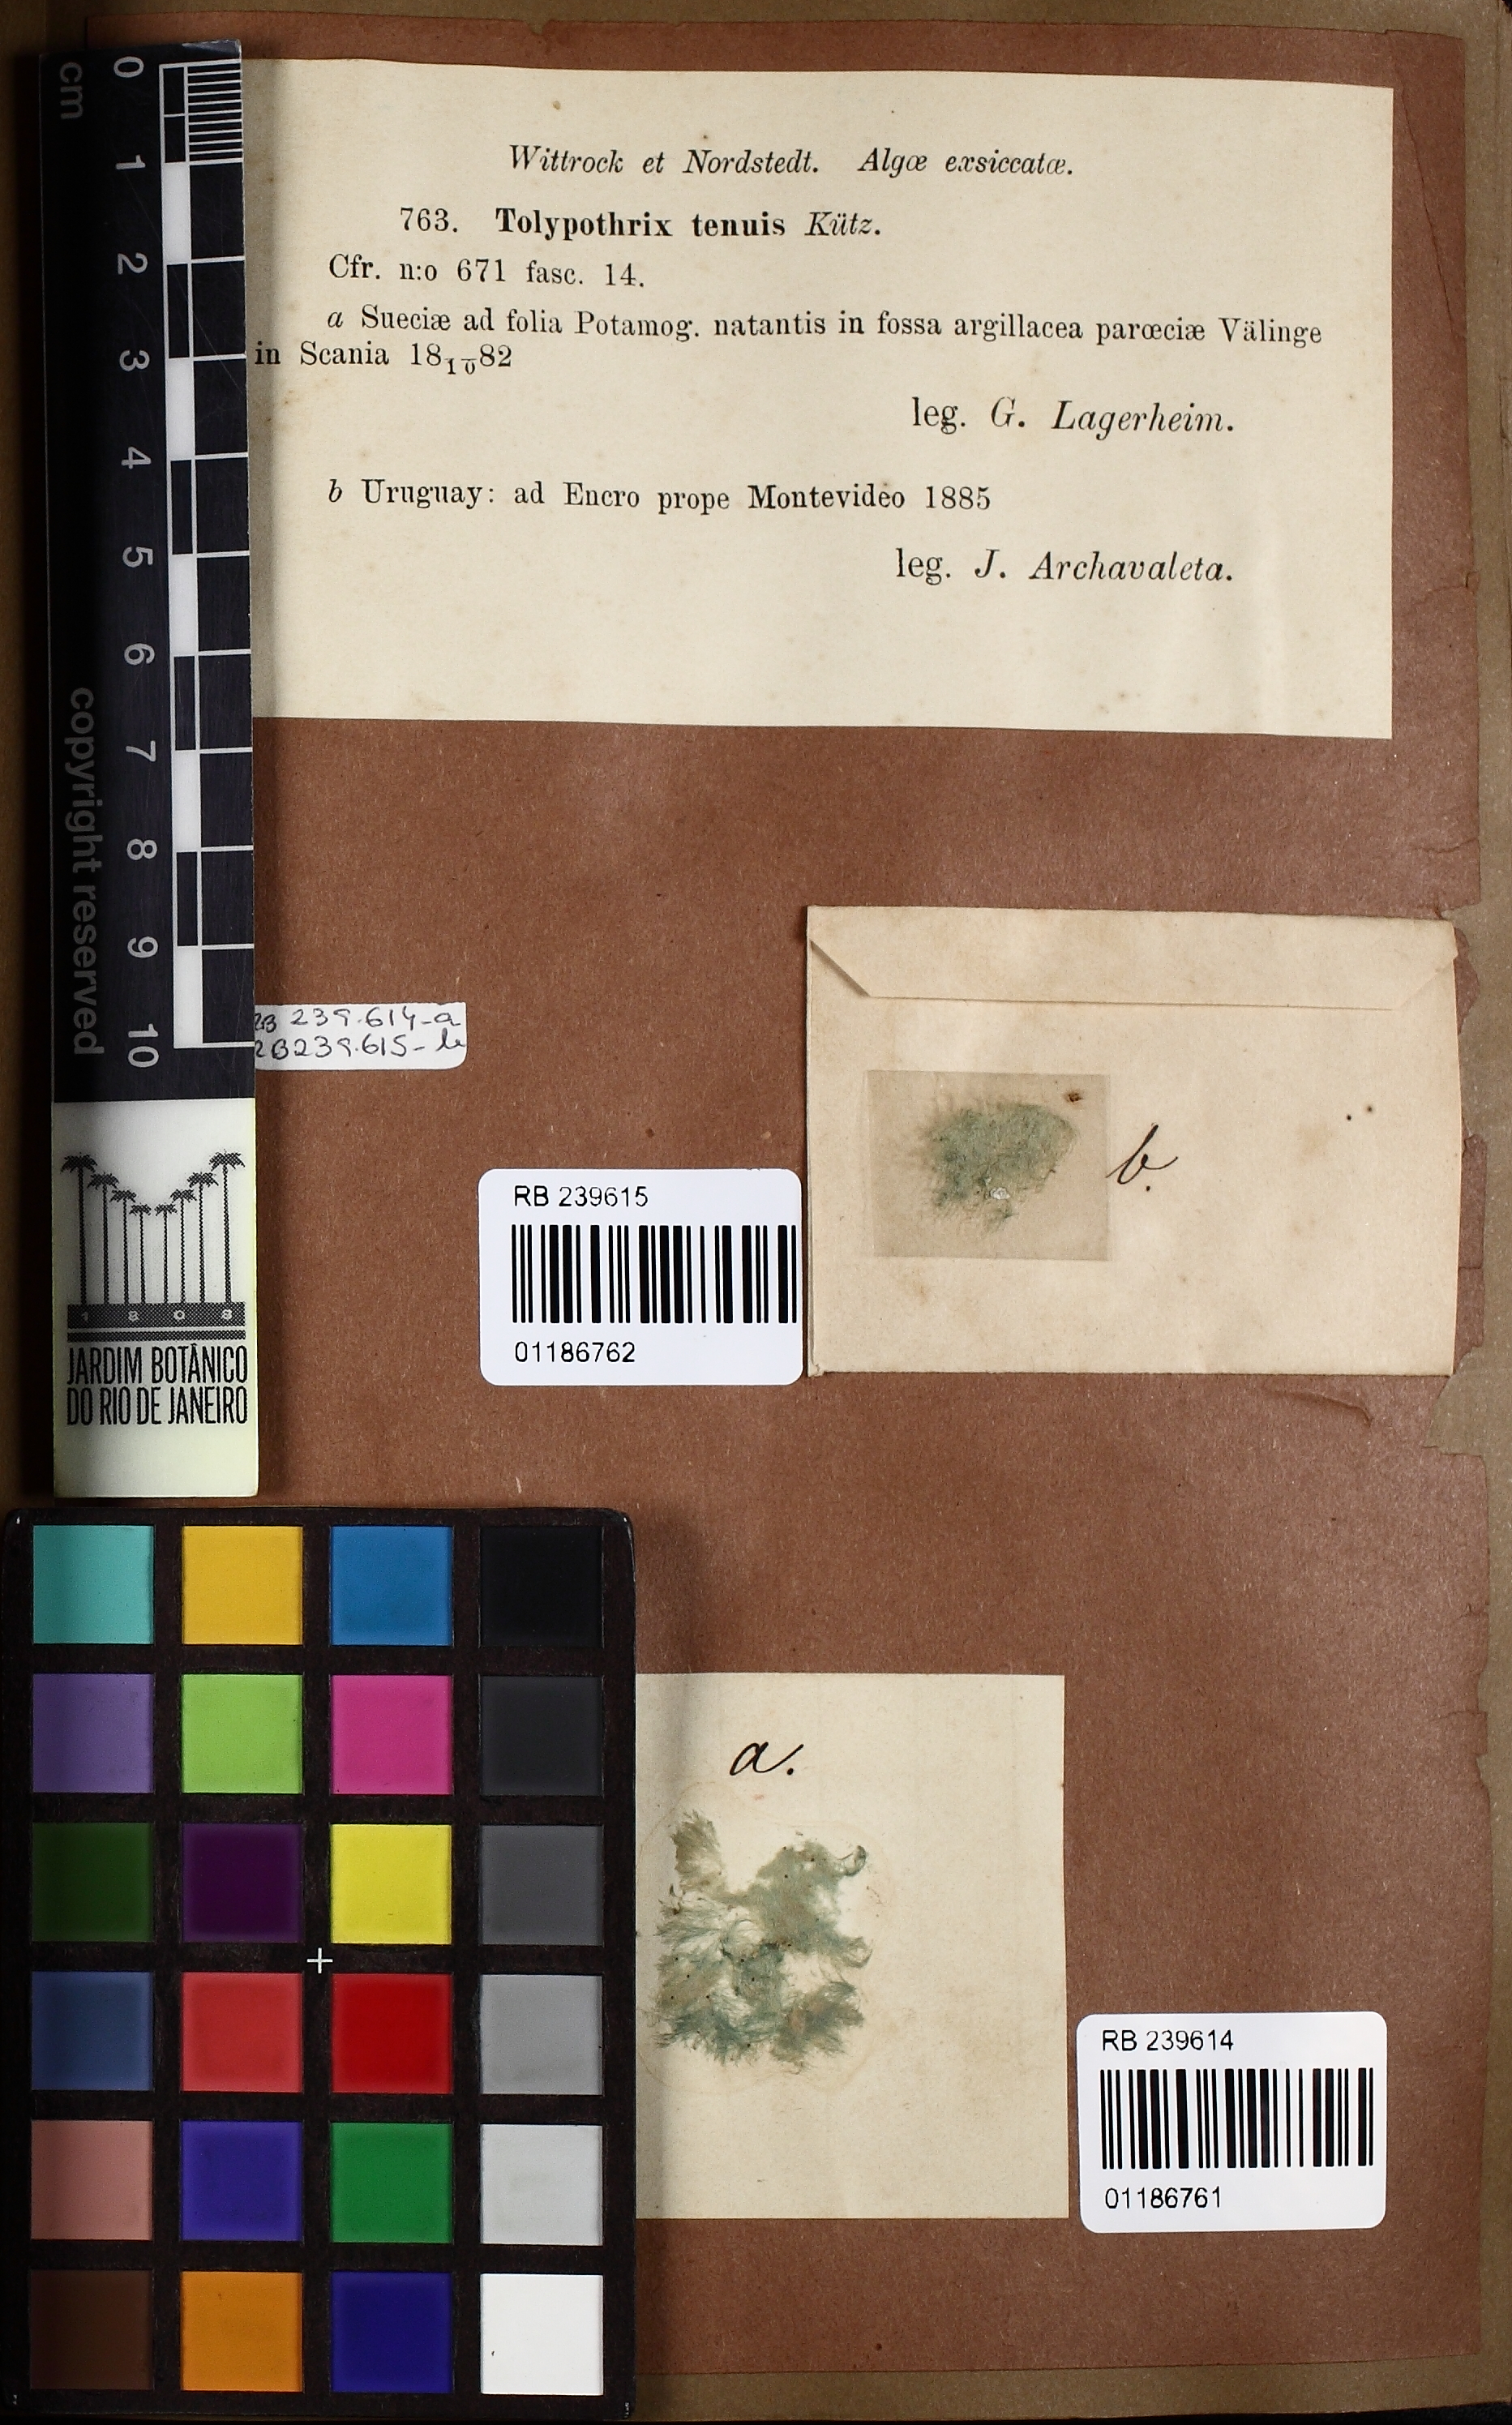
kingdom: Bacteria
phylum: Cyanobacteria
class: Cyanobacteriia
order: Cyanobacteriales
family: Tolypothrichaceae
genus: Tolypothrix
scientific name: Tolypothrix tenuis
